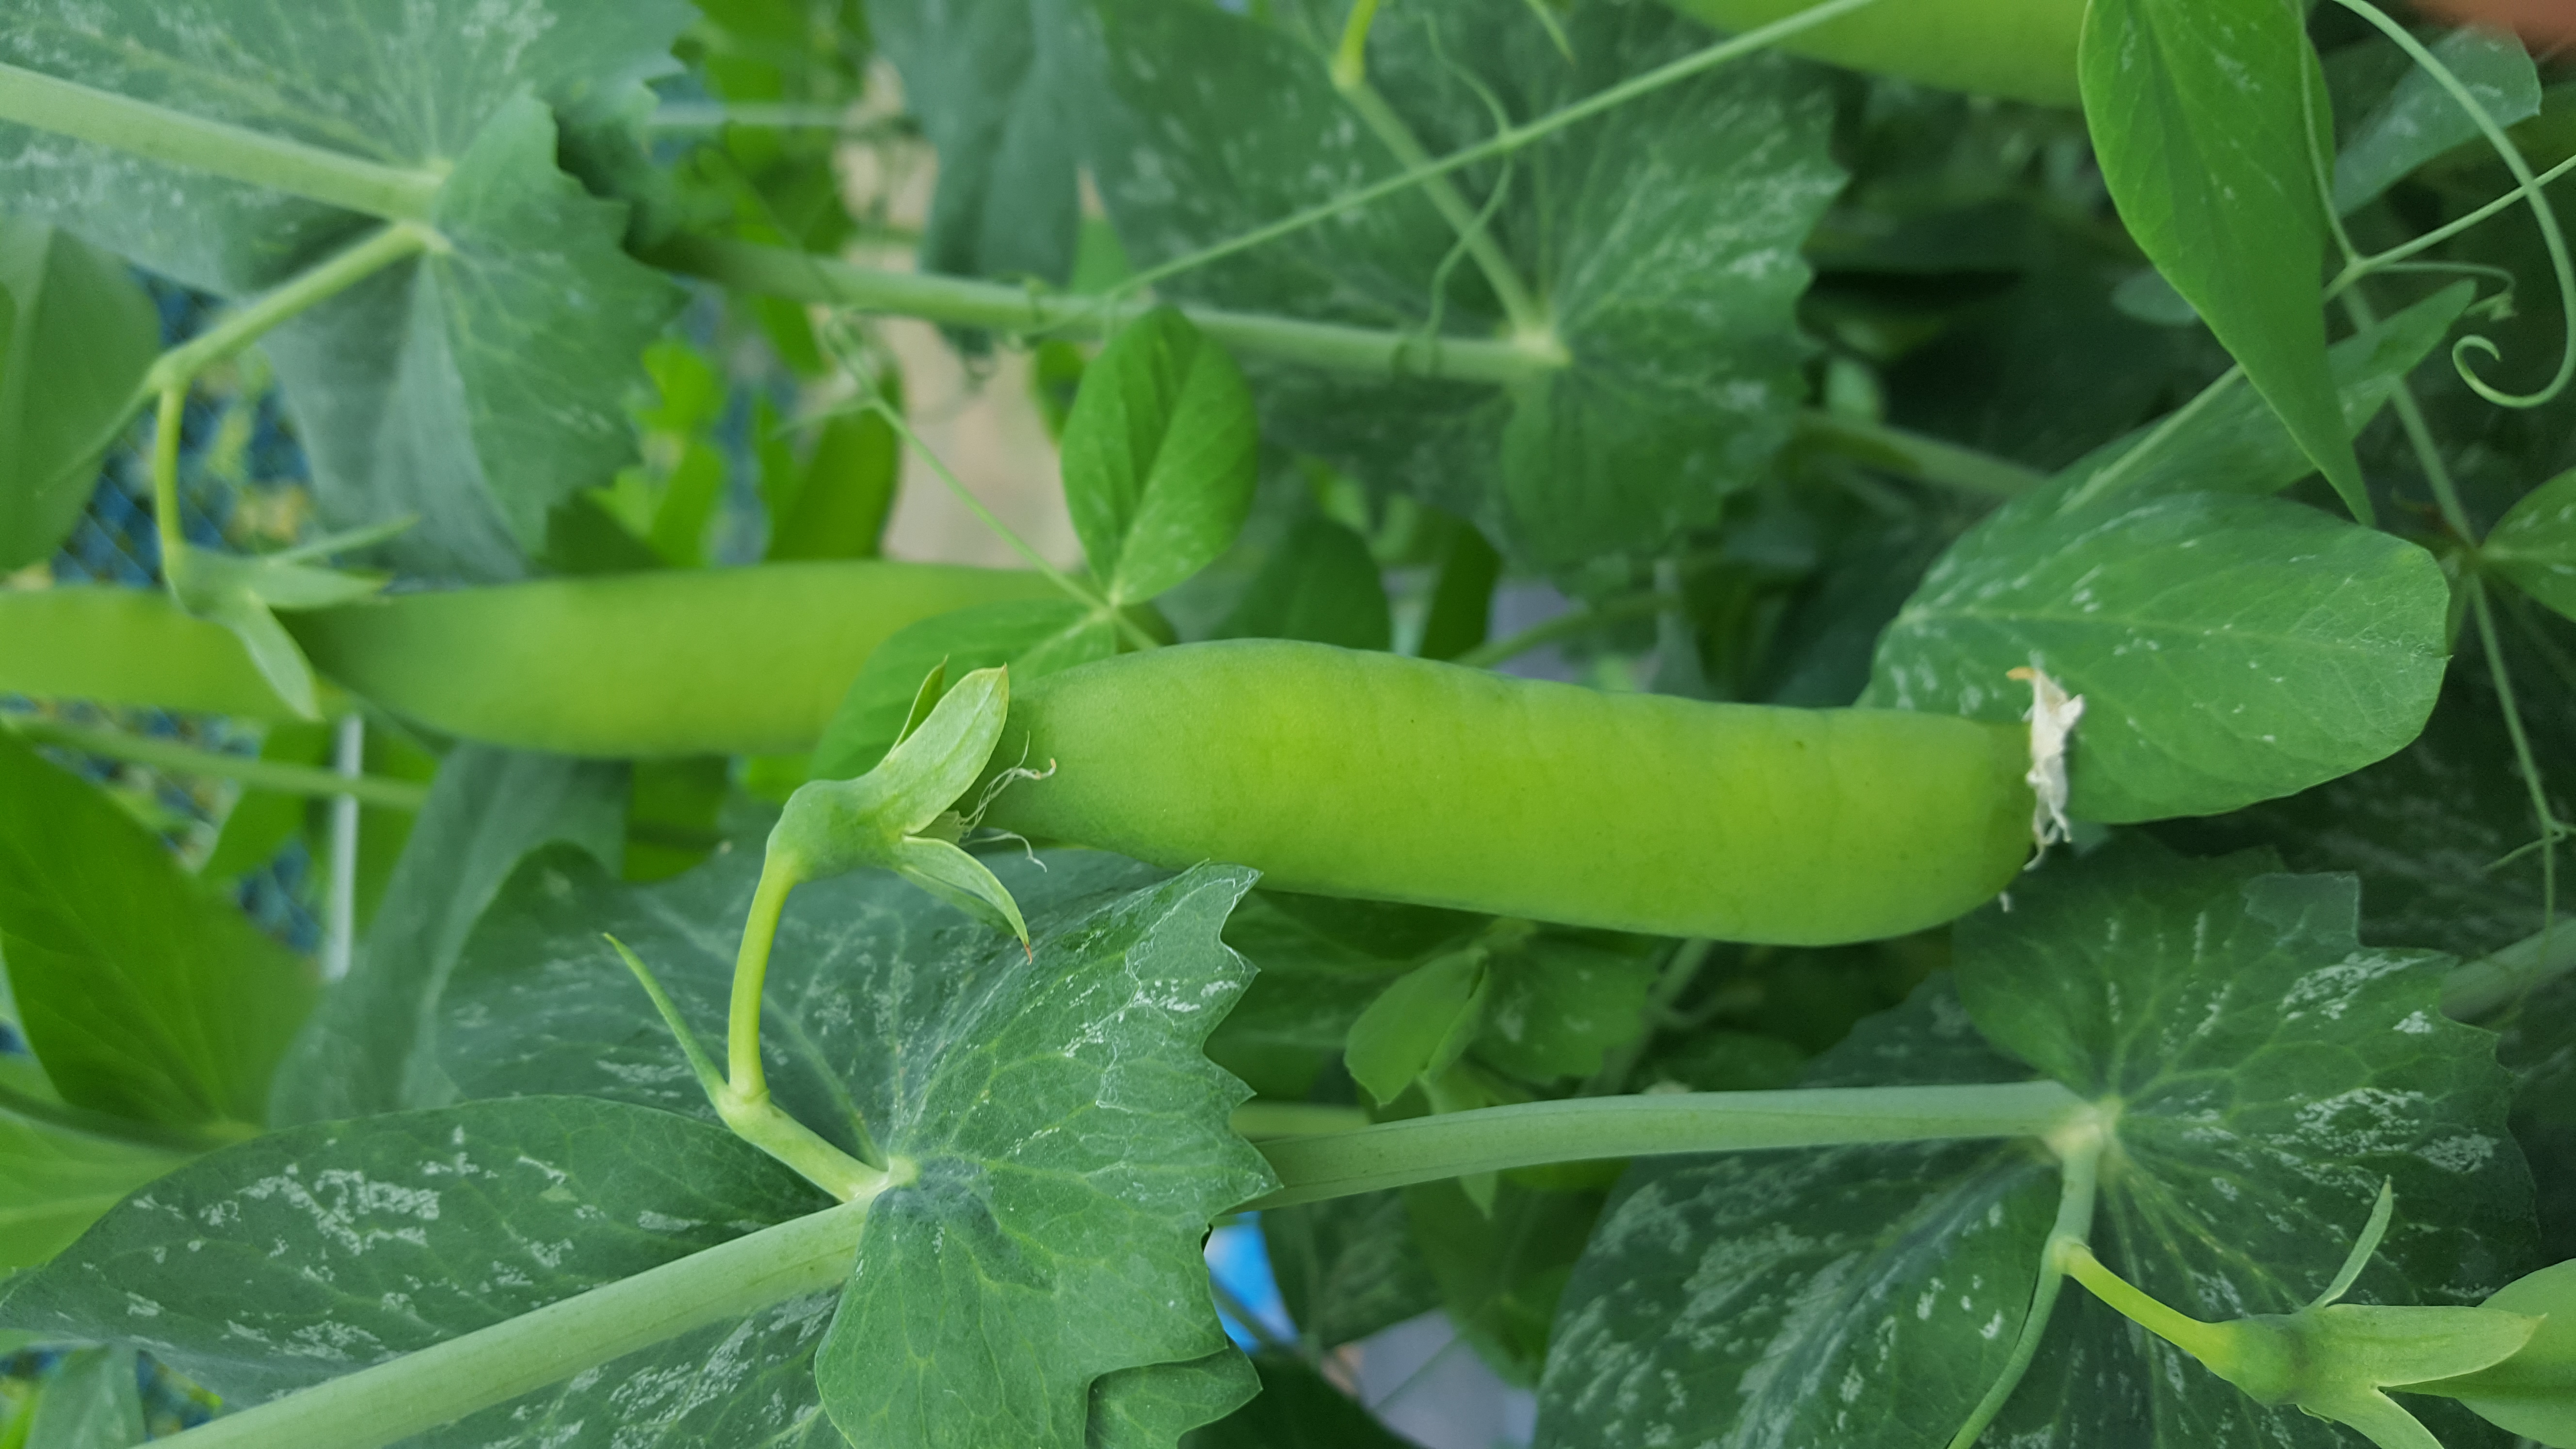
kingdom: Plantae
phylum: Tracheophyta
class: Magnoliopsida
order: Fabales
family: Fabaceae
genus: Lathyrus
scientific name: Lathyrus oleraceus
